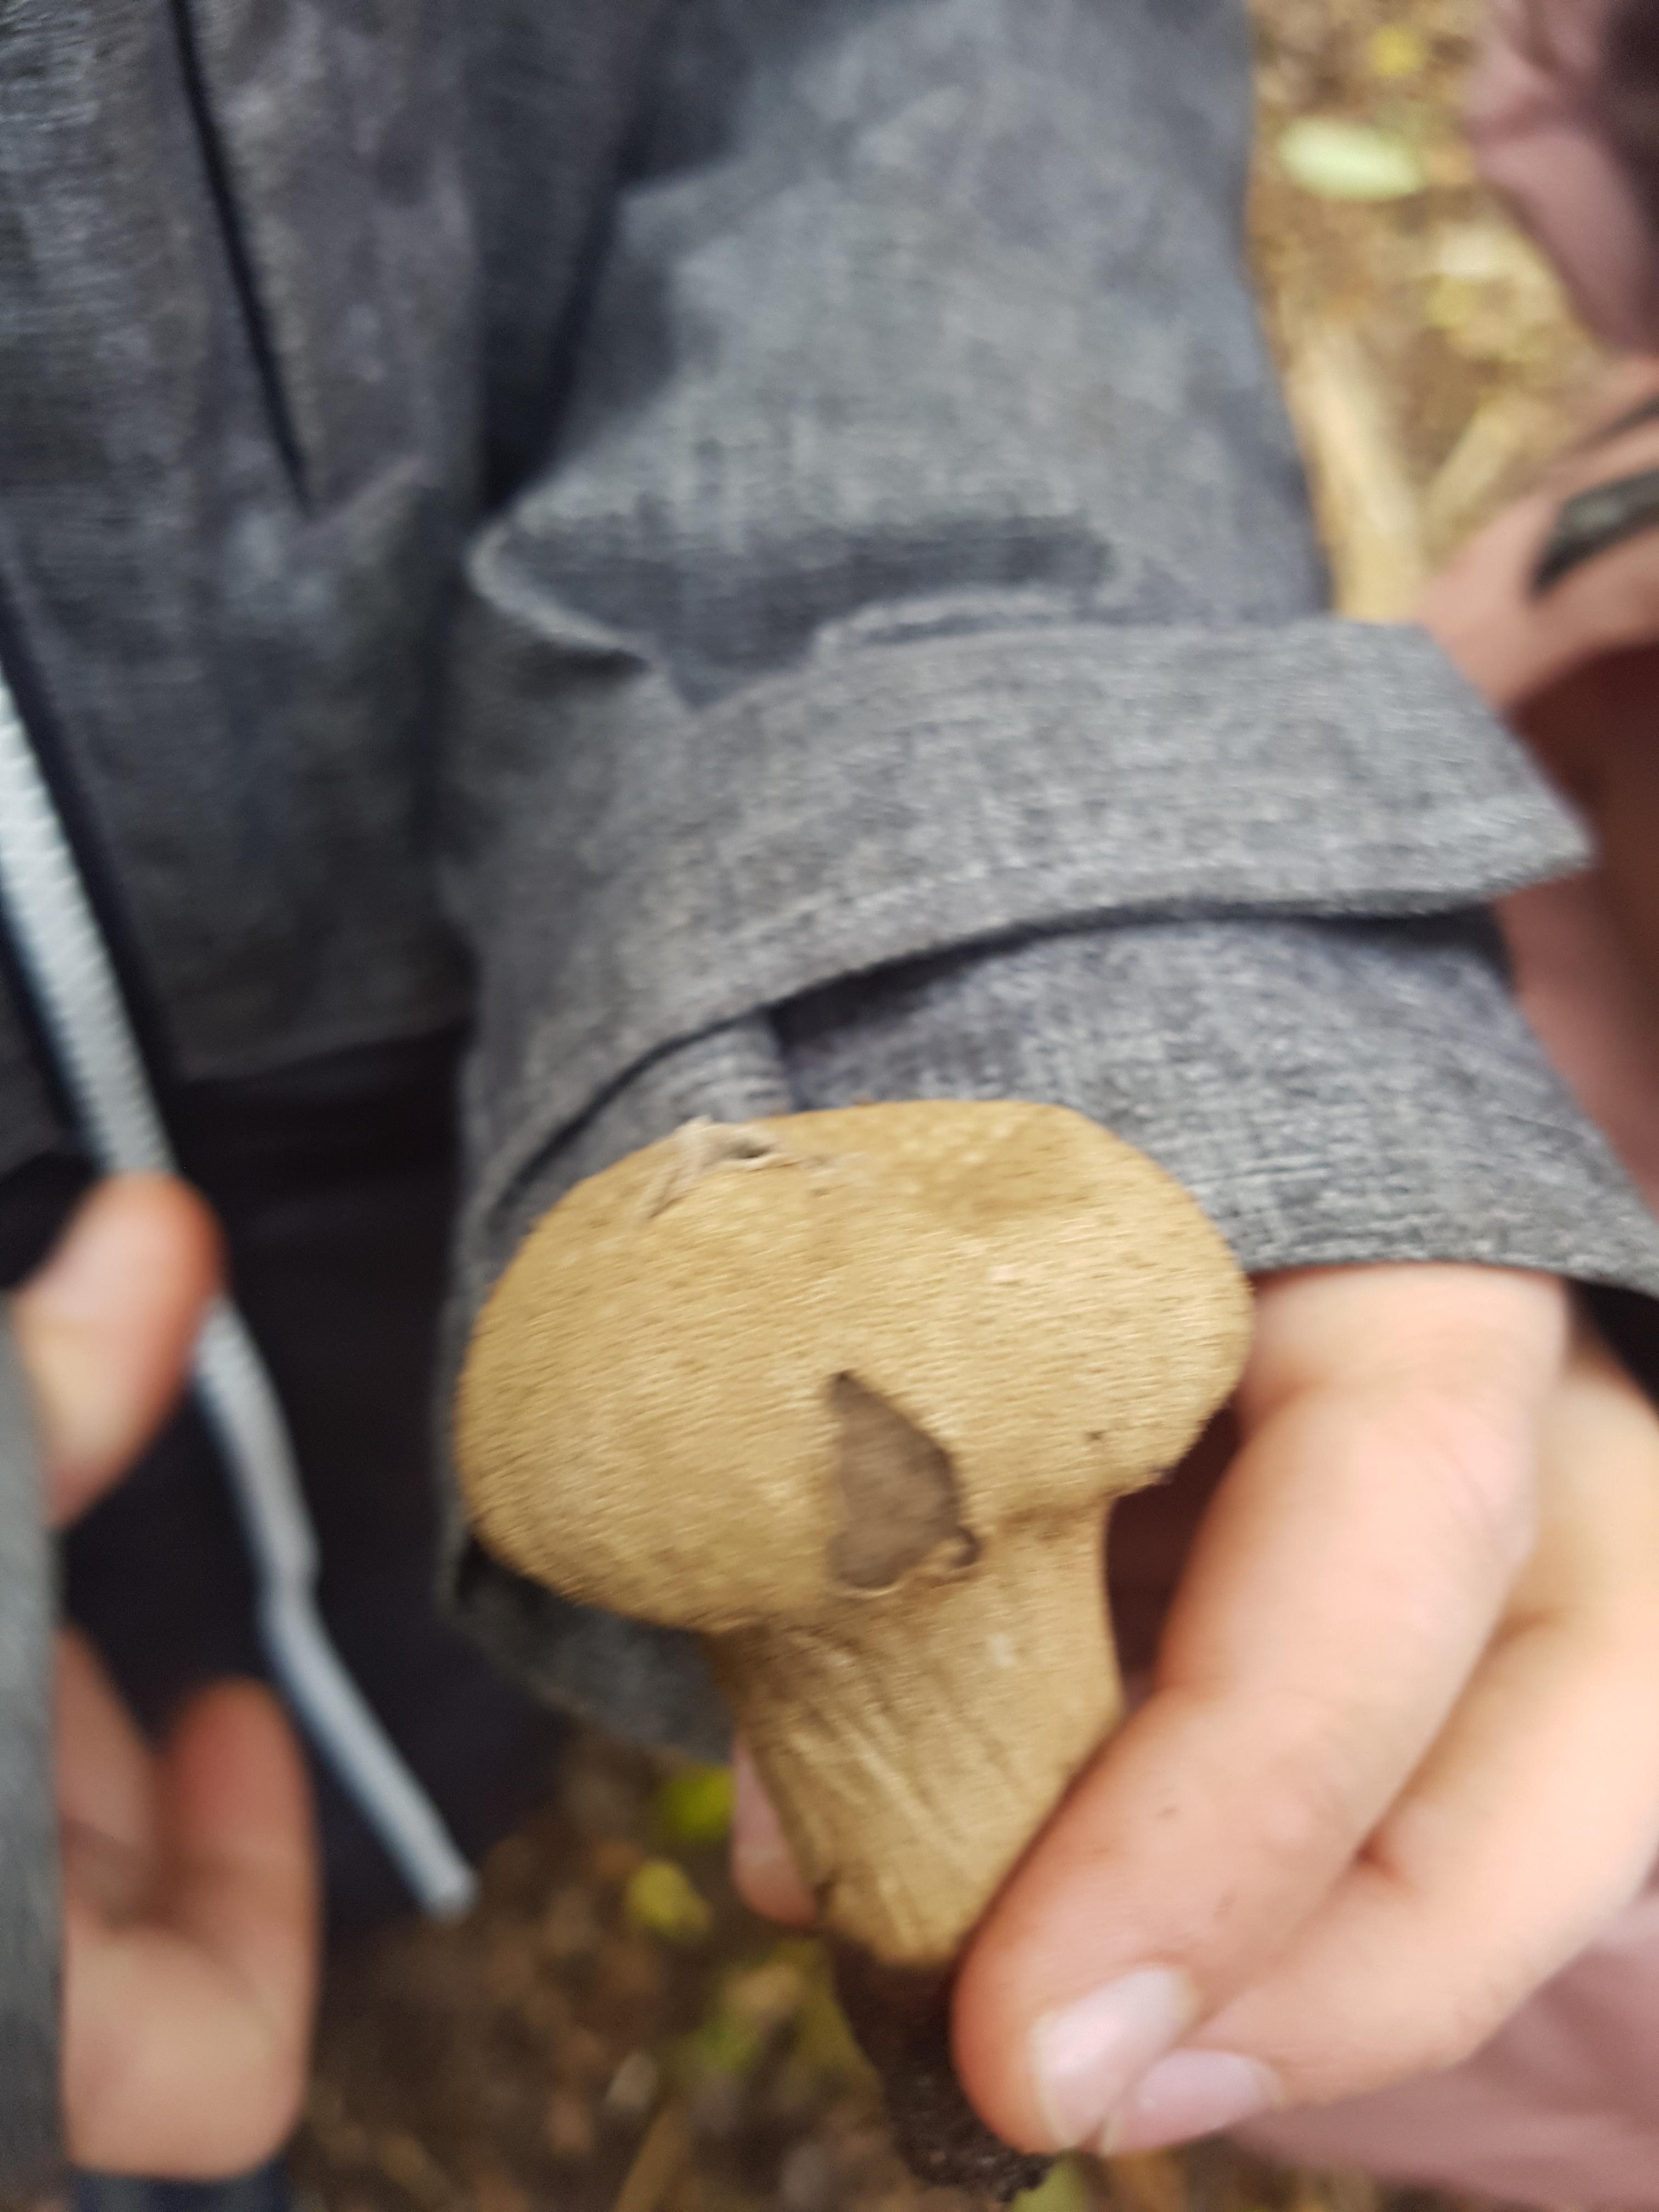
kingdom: Fungi
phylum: Basidiomycota
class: Agaricomycetes
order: Agaricales
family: Lycoperdaceae
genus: Lycoperdon
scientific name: Lycoperdon perlatum
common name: krystal-støvbold
